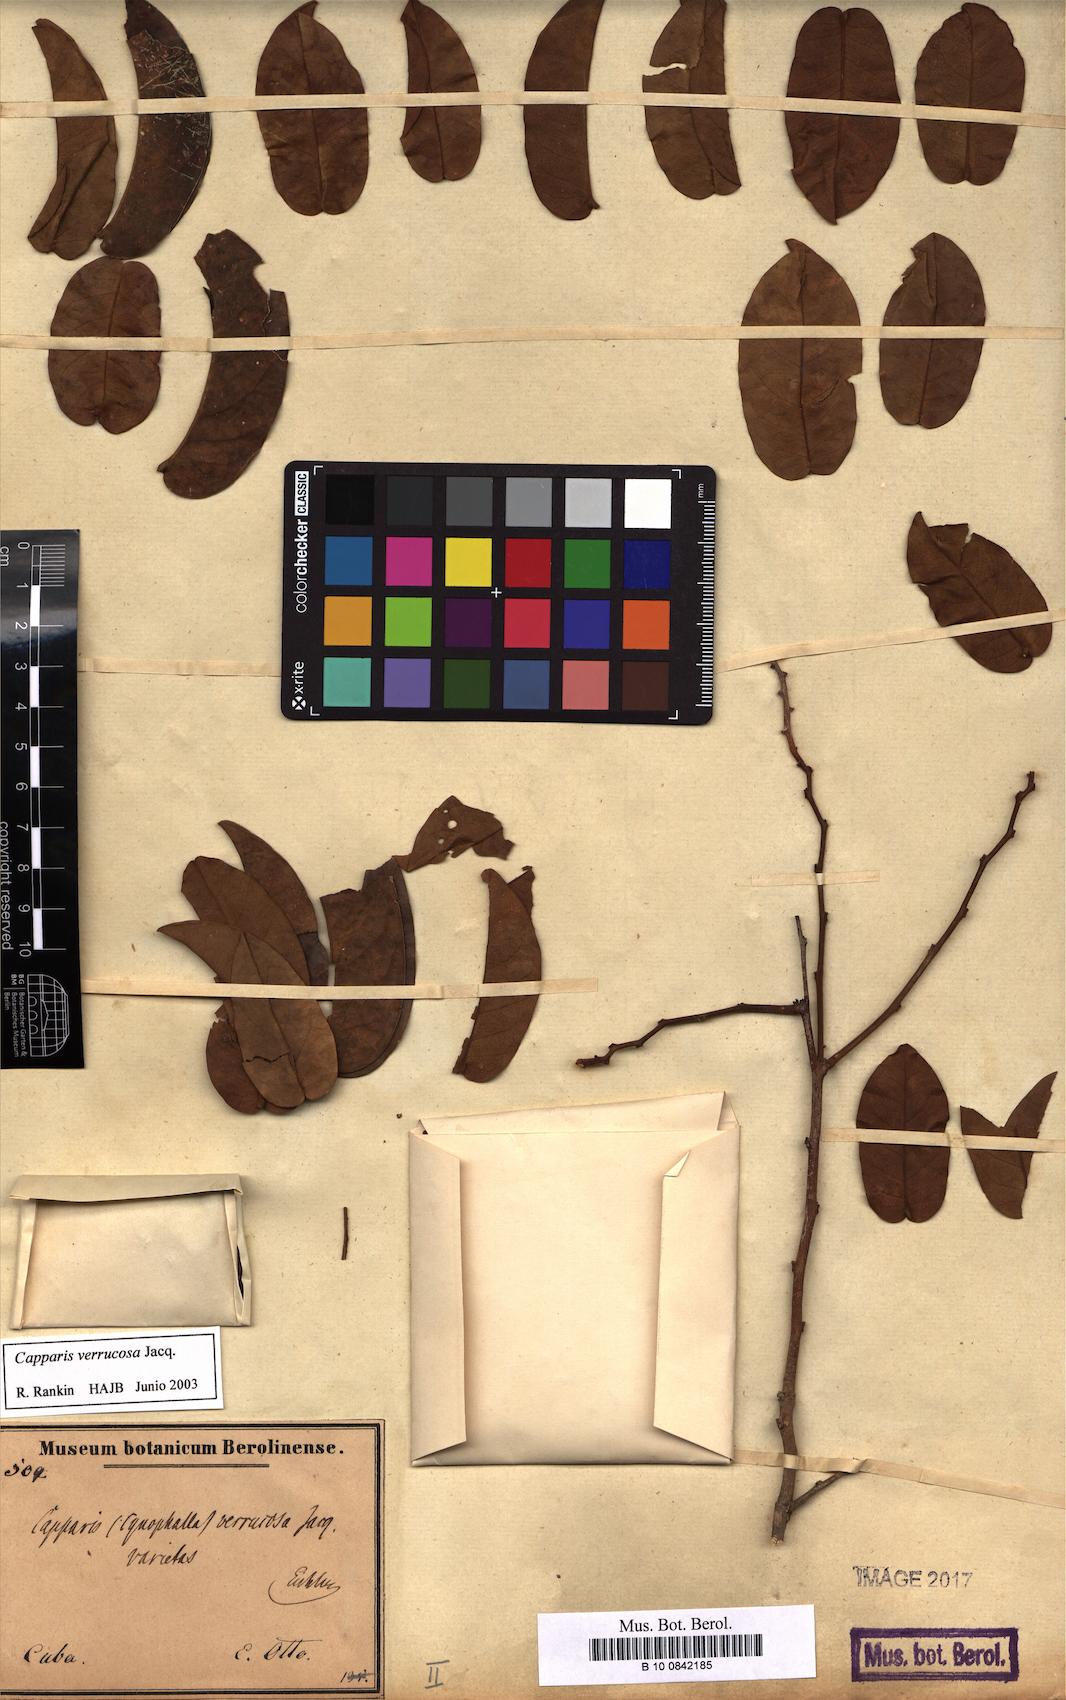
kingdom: Plantae
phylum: Tracheophyta
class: Magnoliopsida
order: Brassicales
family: Capparaceae
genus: Cynophalla
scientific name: Cynophalla verrucosa
